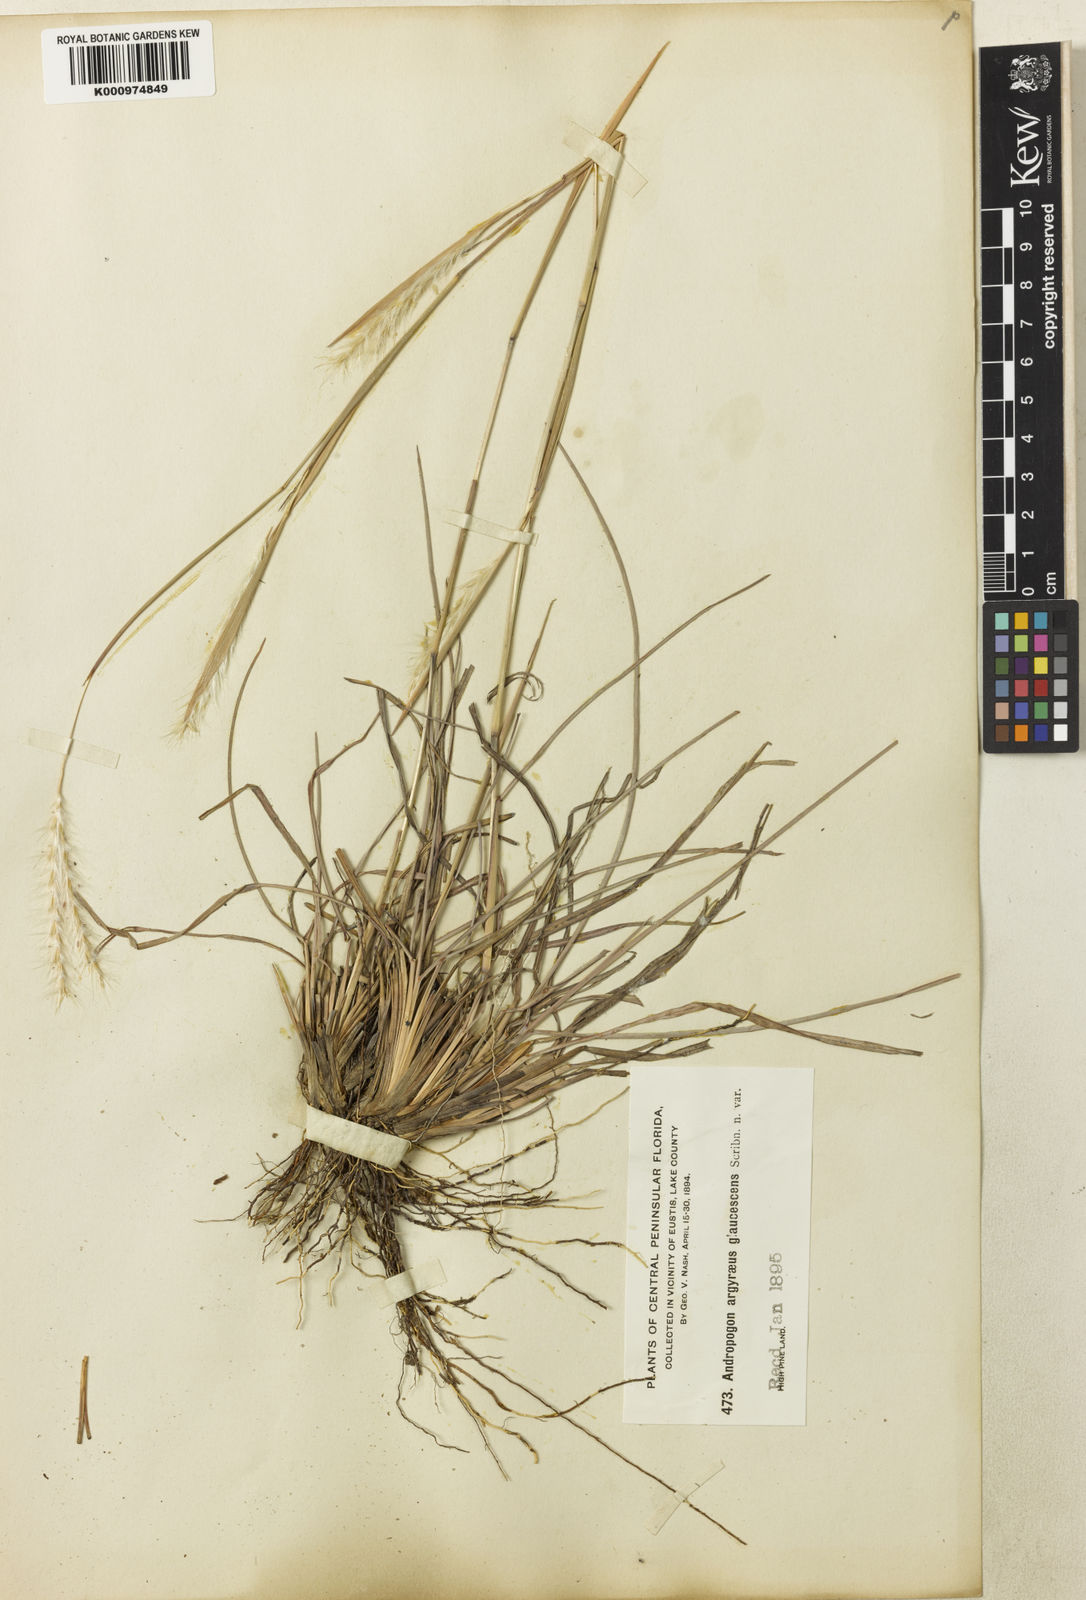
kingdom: Plantae
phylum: Tracheophyta
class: Liliopsida
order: Poales
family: Poaceae
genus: Andropogon
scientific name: Andropogon ternarius
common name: Split bluestem
